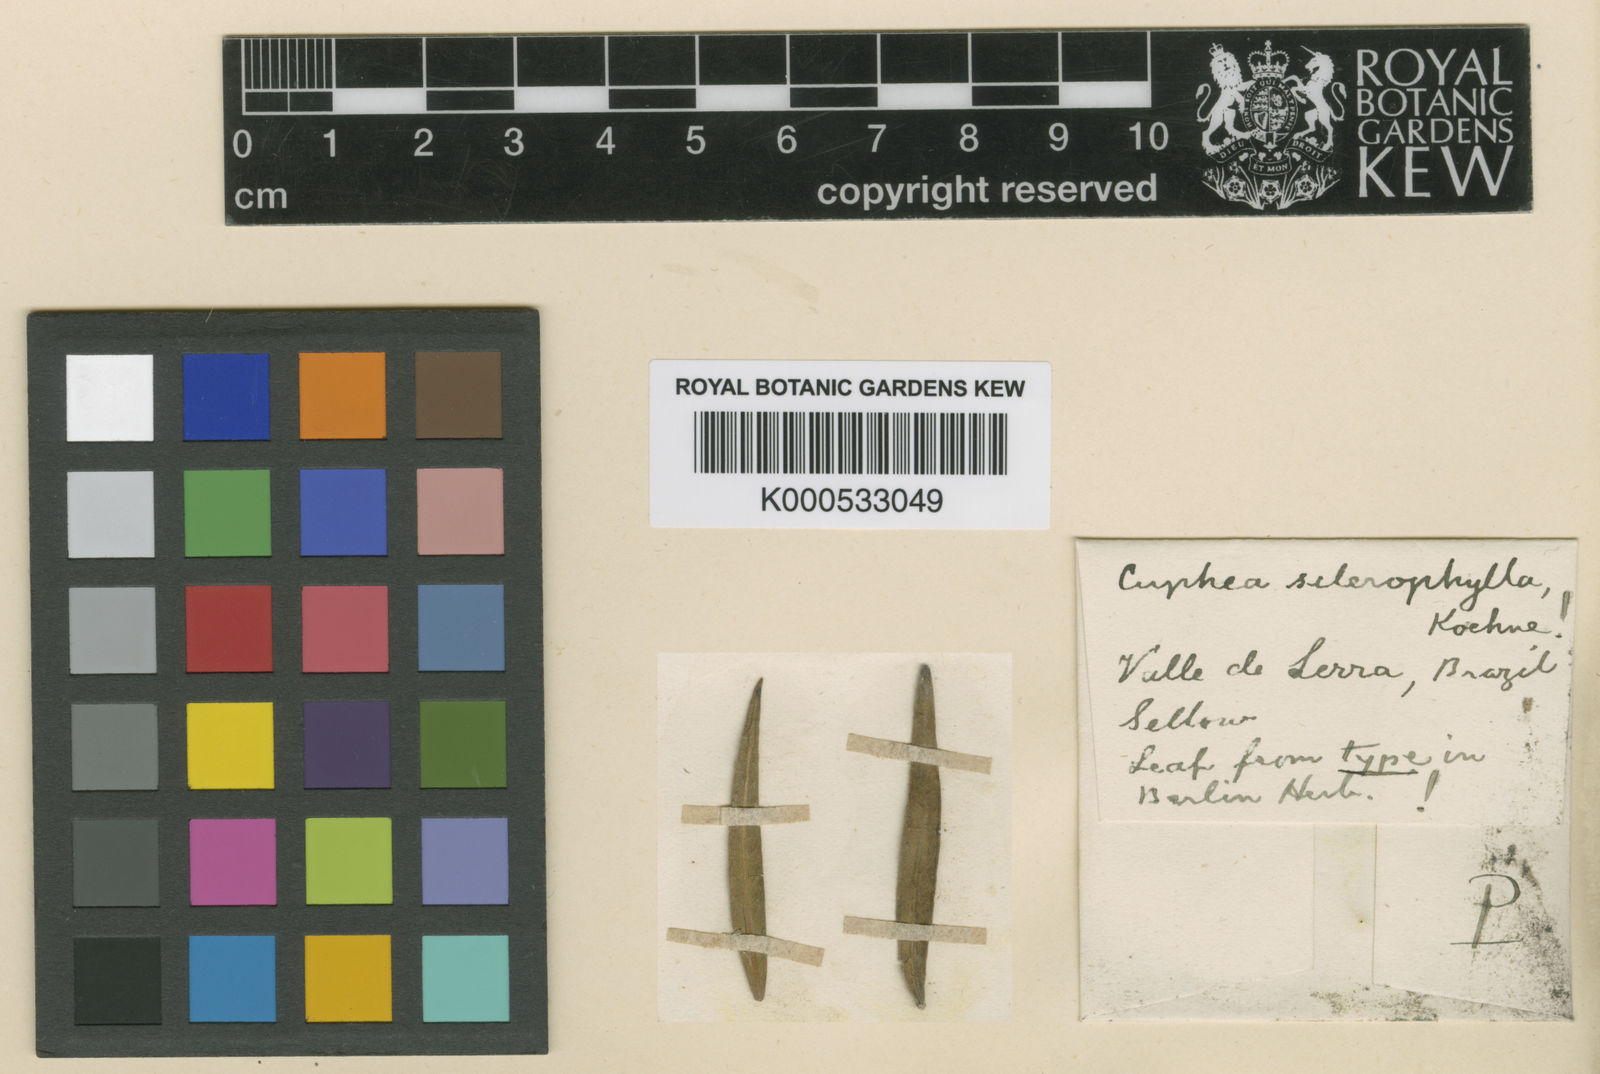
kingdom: Plantae
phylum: Tracheophyta
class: Magnoliopsida
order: Myrtales
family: Lythraceae
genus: Cuphea
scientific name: Cuphea sclerophylla
